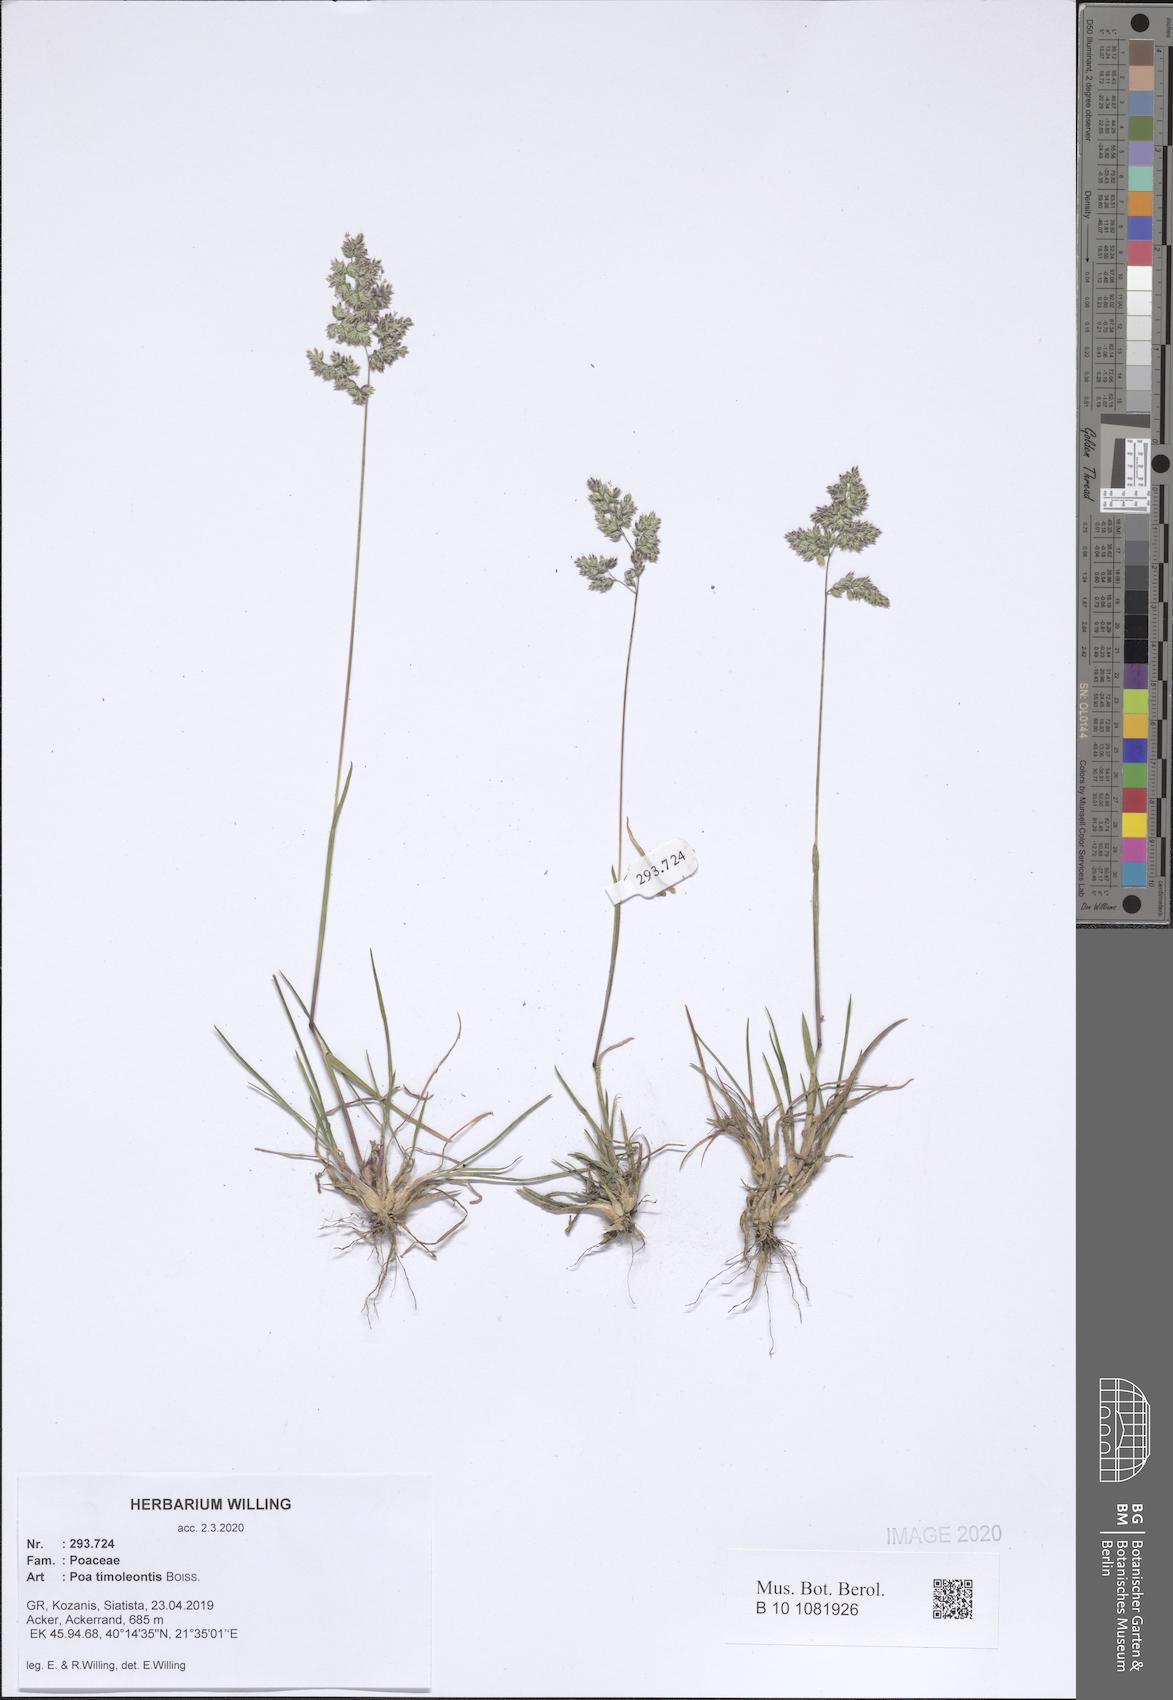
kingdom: Plantae
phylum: Tracheophyta
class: Liliopsida
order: Poales
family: Poaceae
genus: Poa
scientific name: Poa timoleontis
